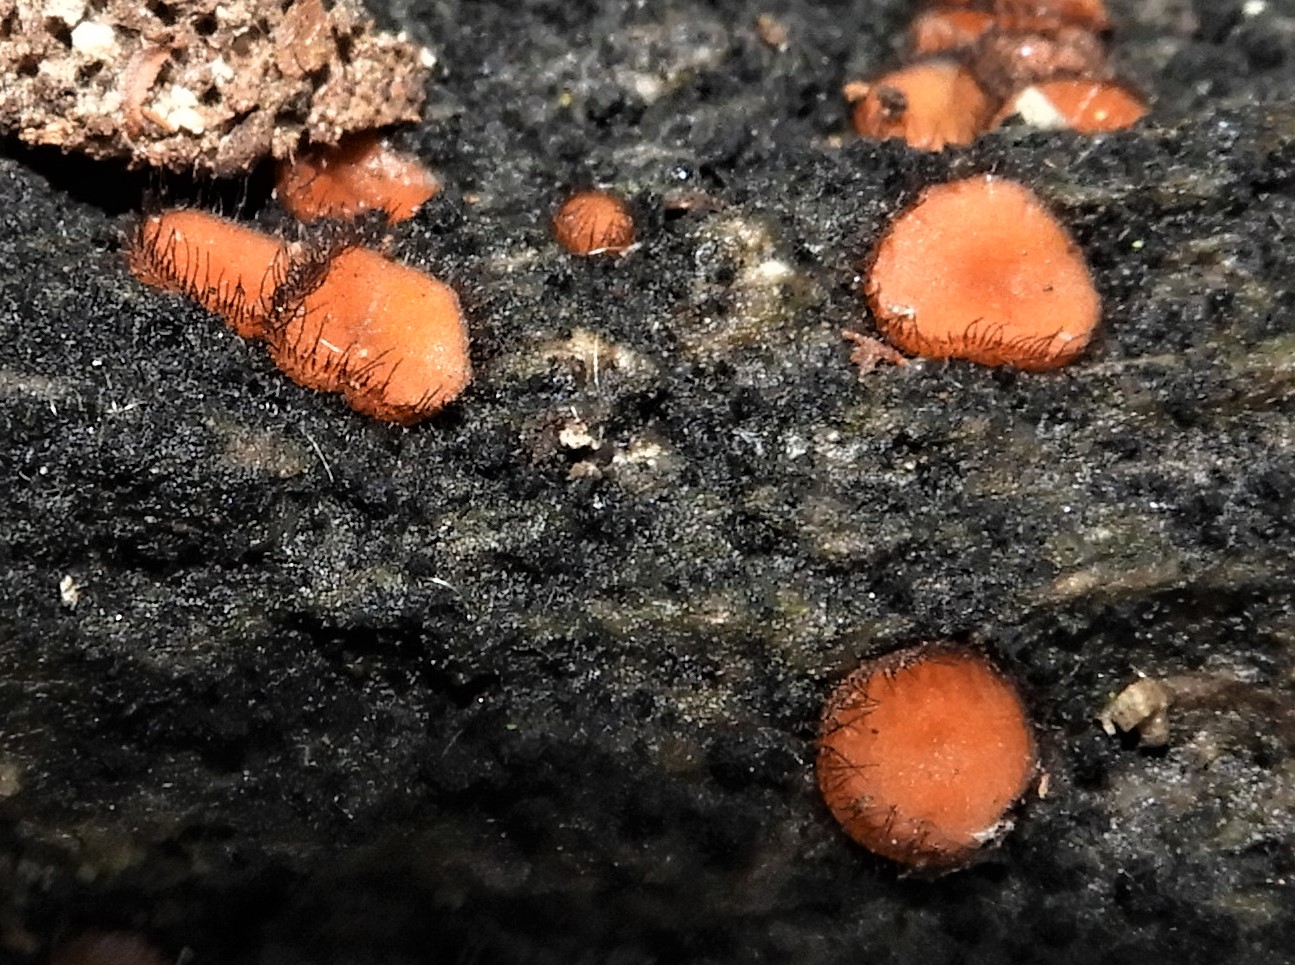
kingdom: Fungi
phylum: Ascomycota
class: Pezizomycetes
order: Pezizales
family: Pyronemataceae
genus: Scutellinia
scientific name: Scutellinia scutellata
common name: frynset skjoldbæger
